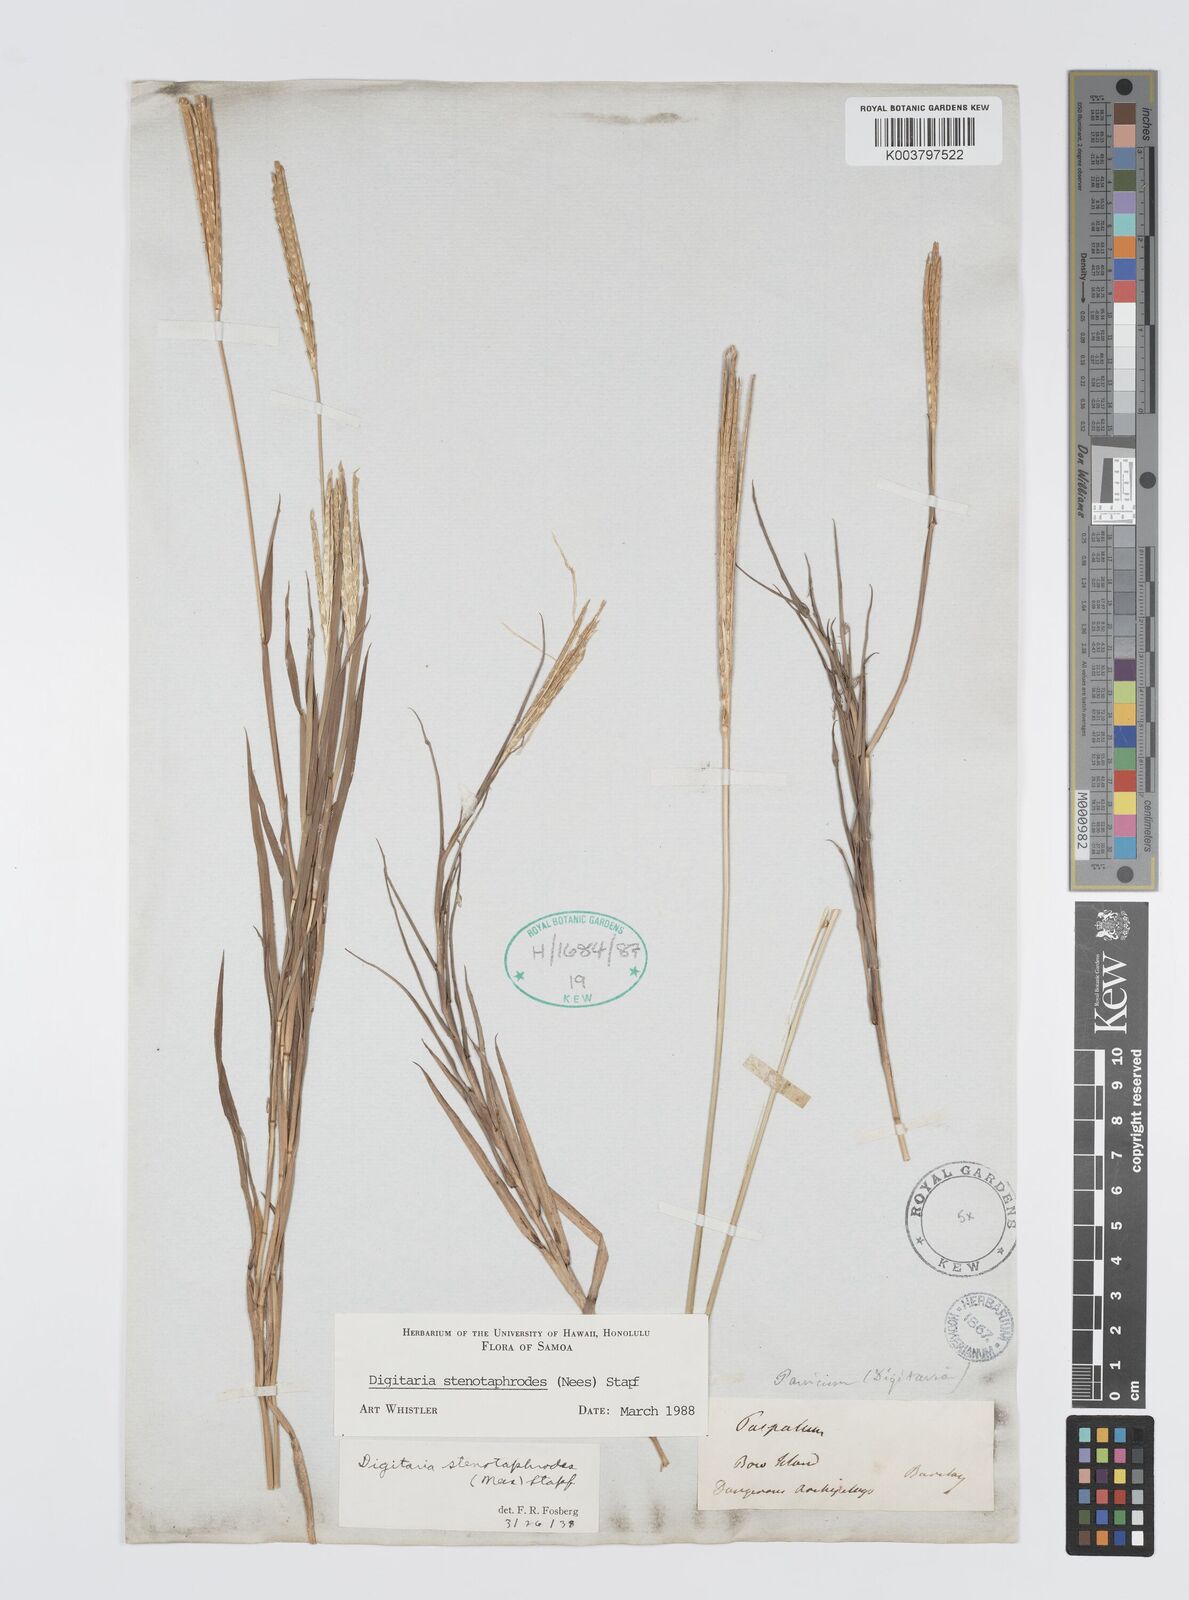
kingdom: Plantae
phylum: Tracheophyta
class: Liliopsida
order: Poales
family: Poaceae
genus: Digitaria
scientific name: Digitaria stenotaphrodes
